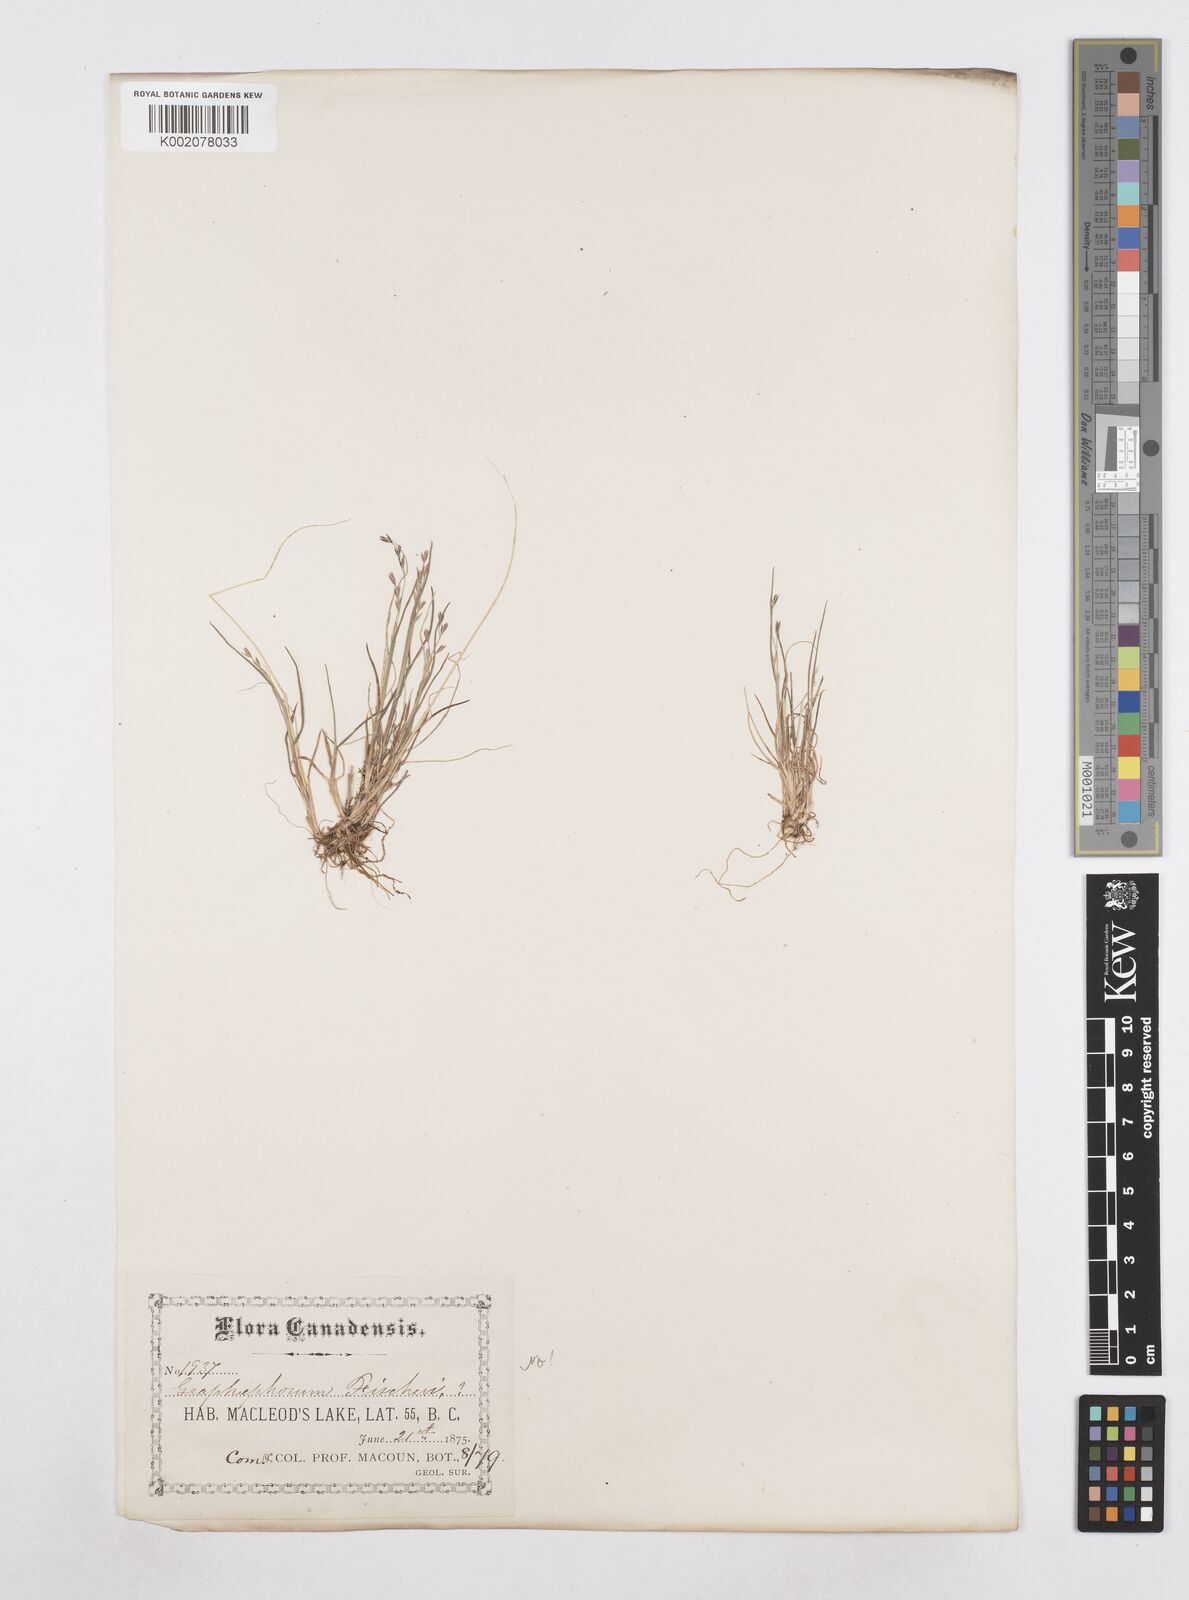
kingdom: Plantae
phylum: Tracheophyta
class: Liliopsida
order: Poales
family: Poaceae
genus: Poa
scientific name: Poa
